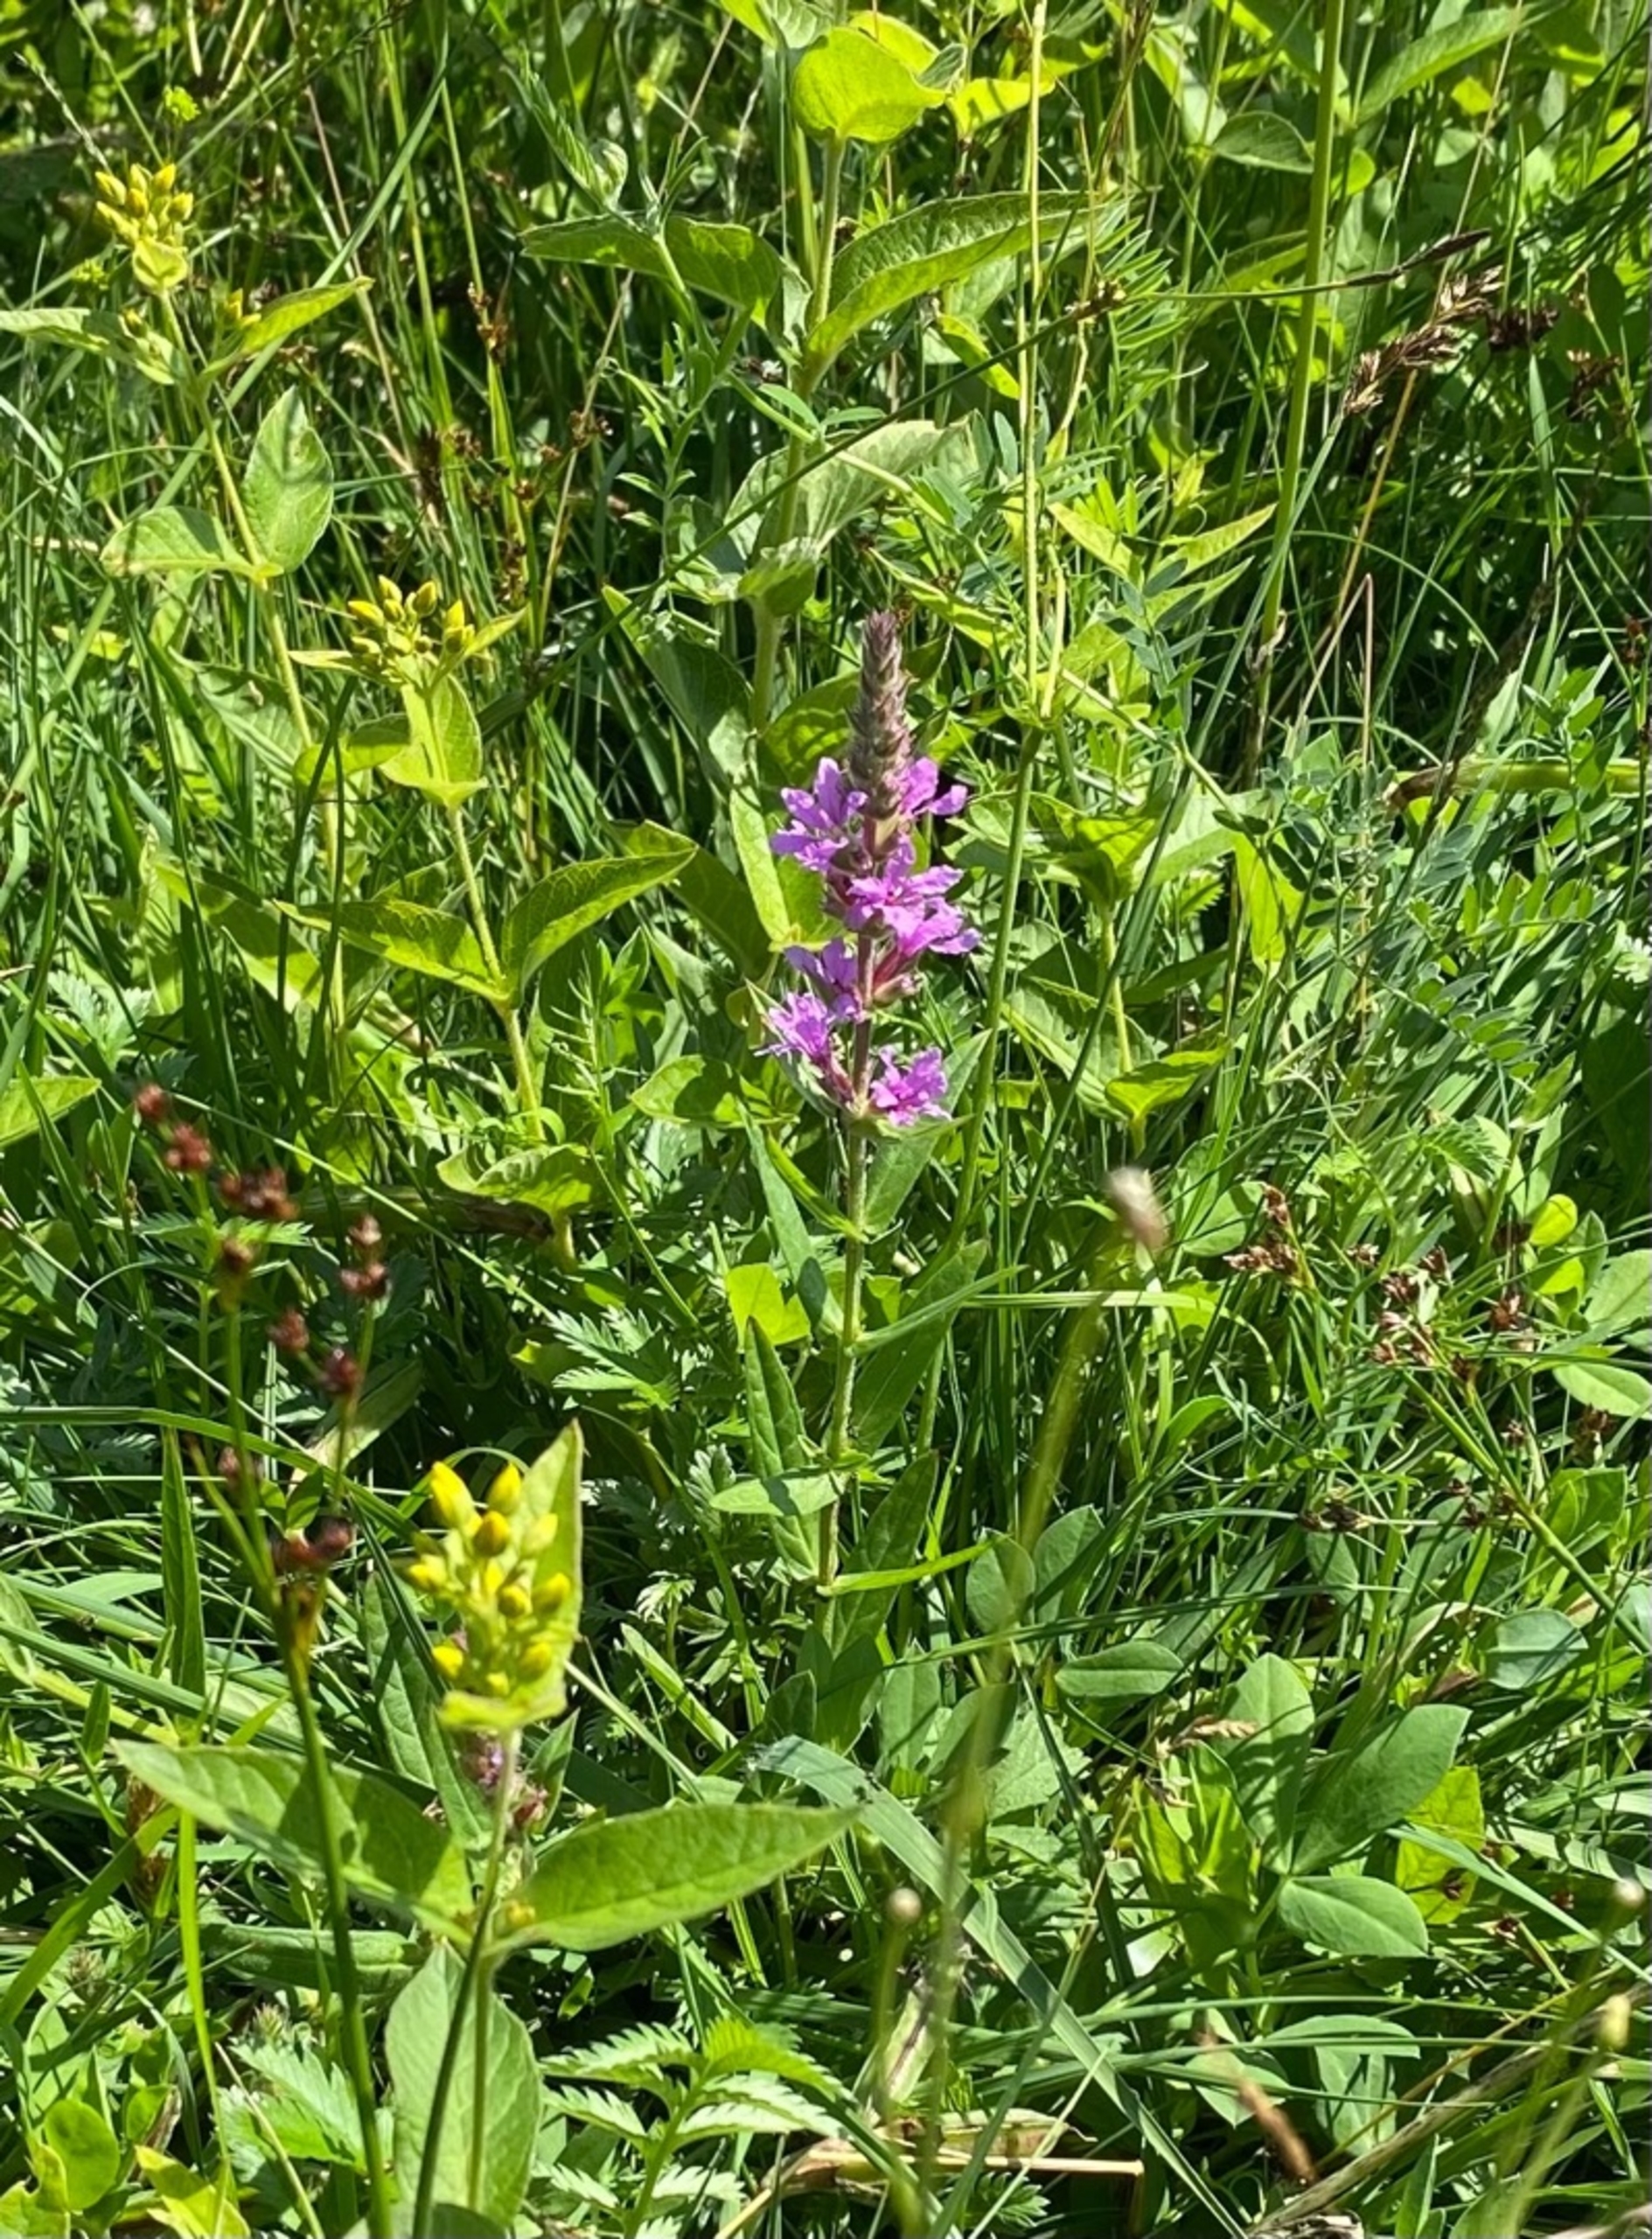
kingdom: Plantae
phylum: Tracheophyta
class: Magnoliopsida
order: Myrtales
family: Lythraceae
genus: Lythrum
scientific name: Lythrum salicaria
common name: Kattehale
